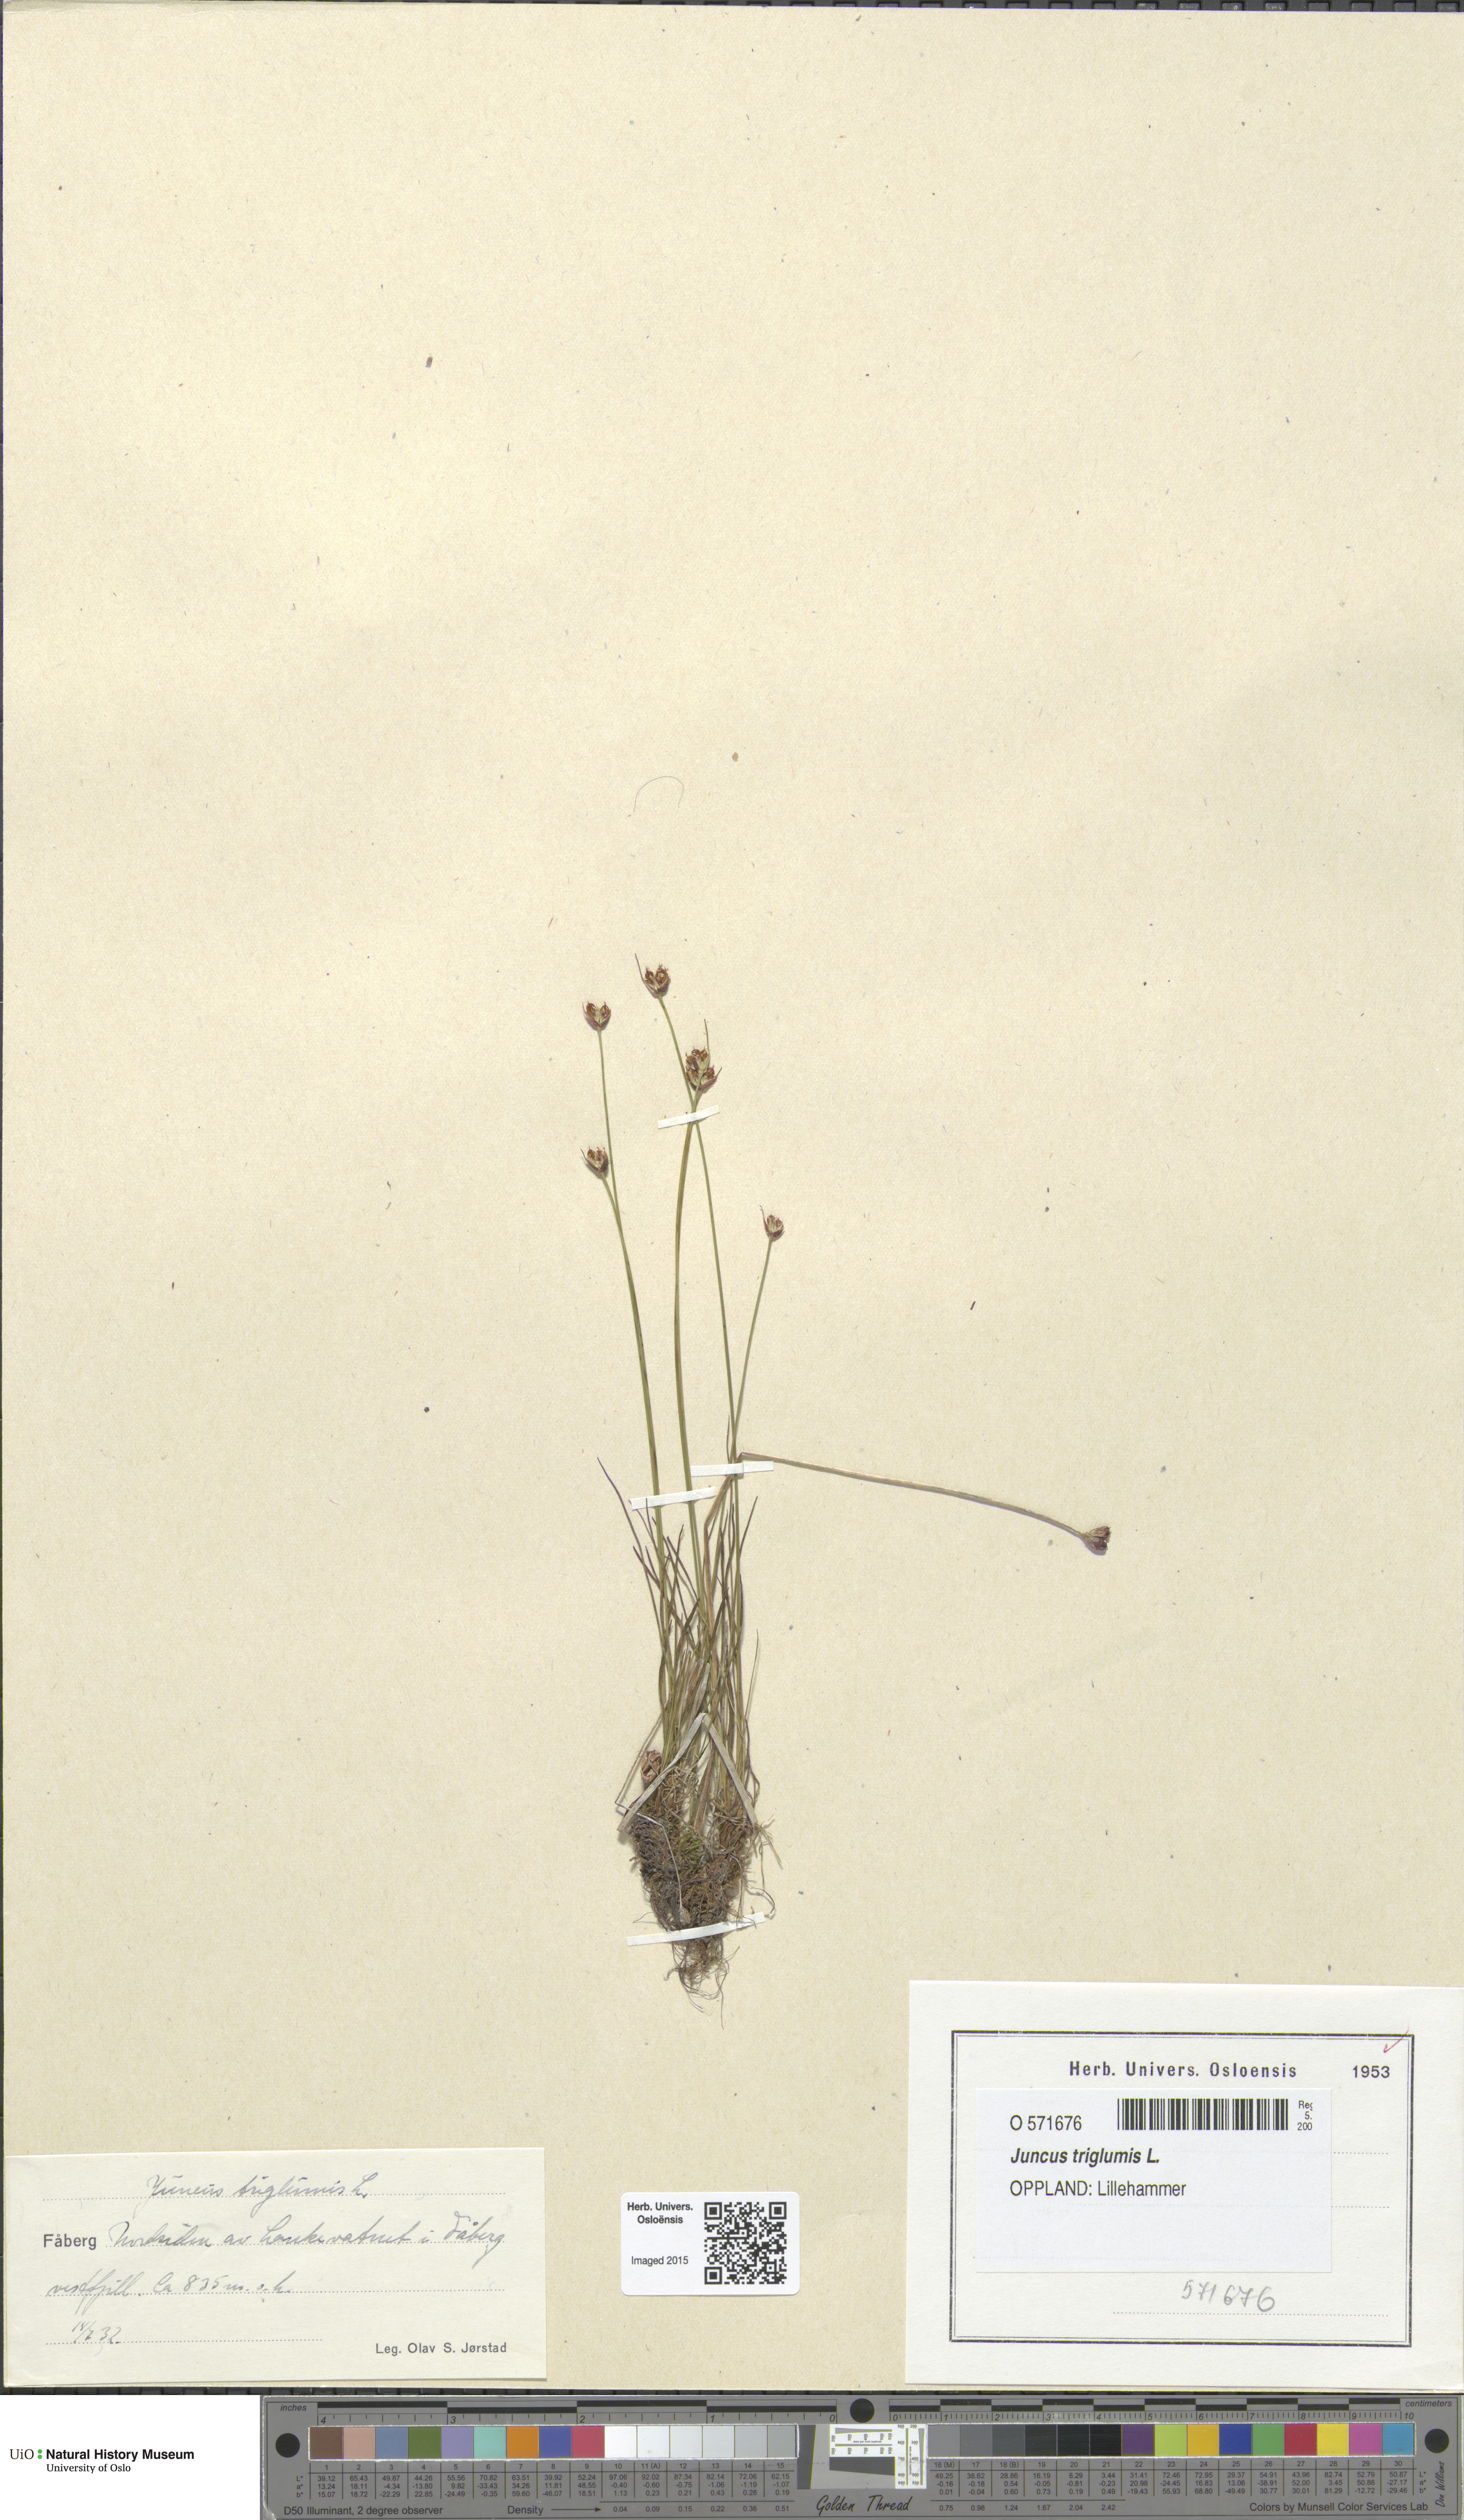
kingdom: Plantae
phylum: Tracheophyta
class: Liliopsida
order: Poales
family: Juncaceae
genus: Juncus
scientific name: Juncus triglumis
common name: Three-flowered rush
